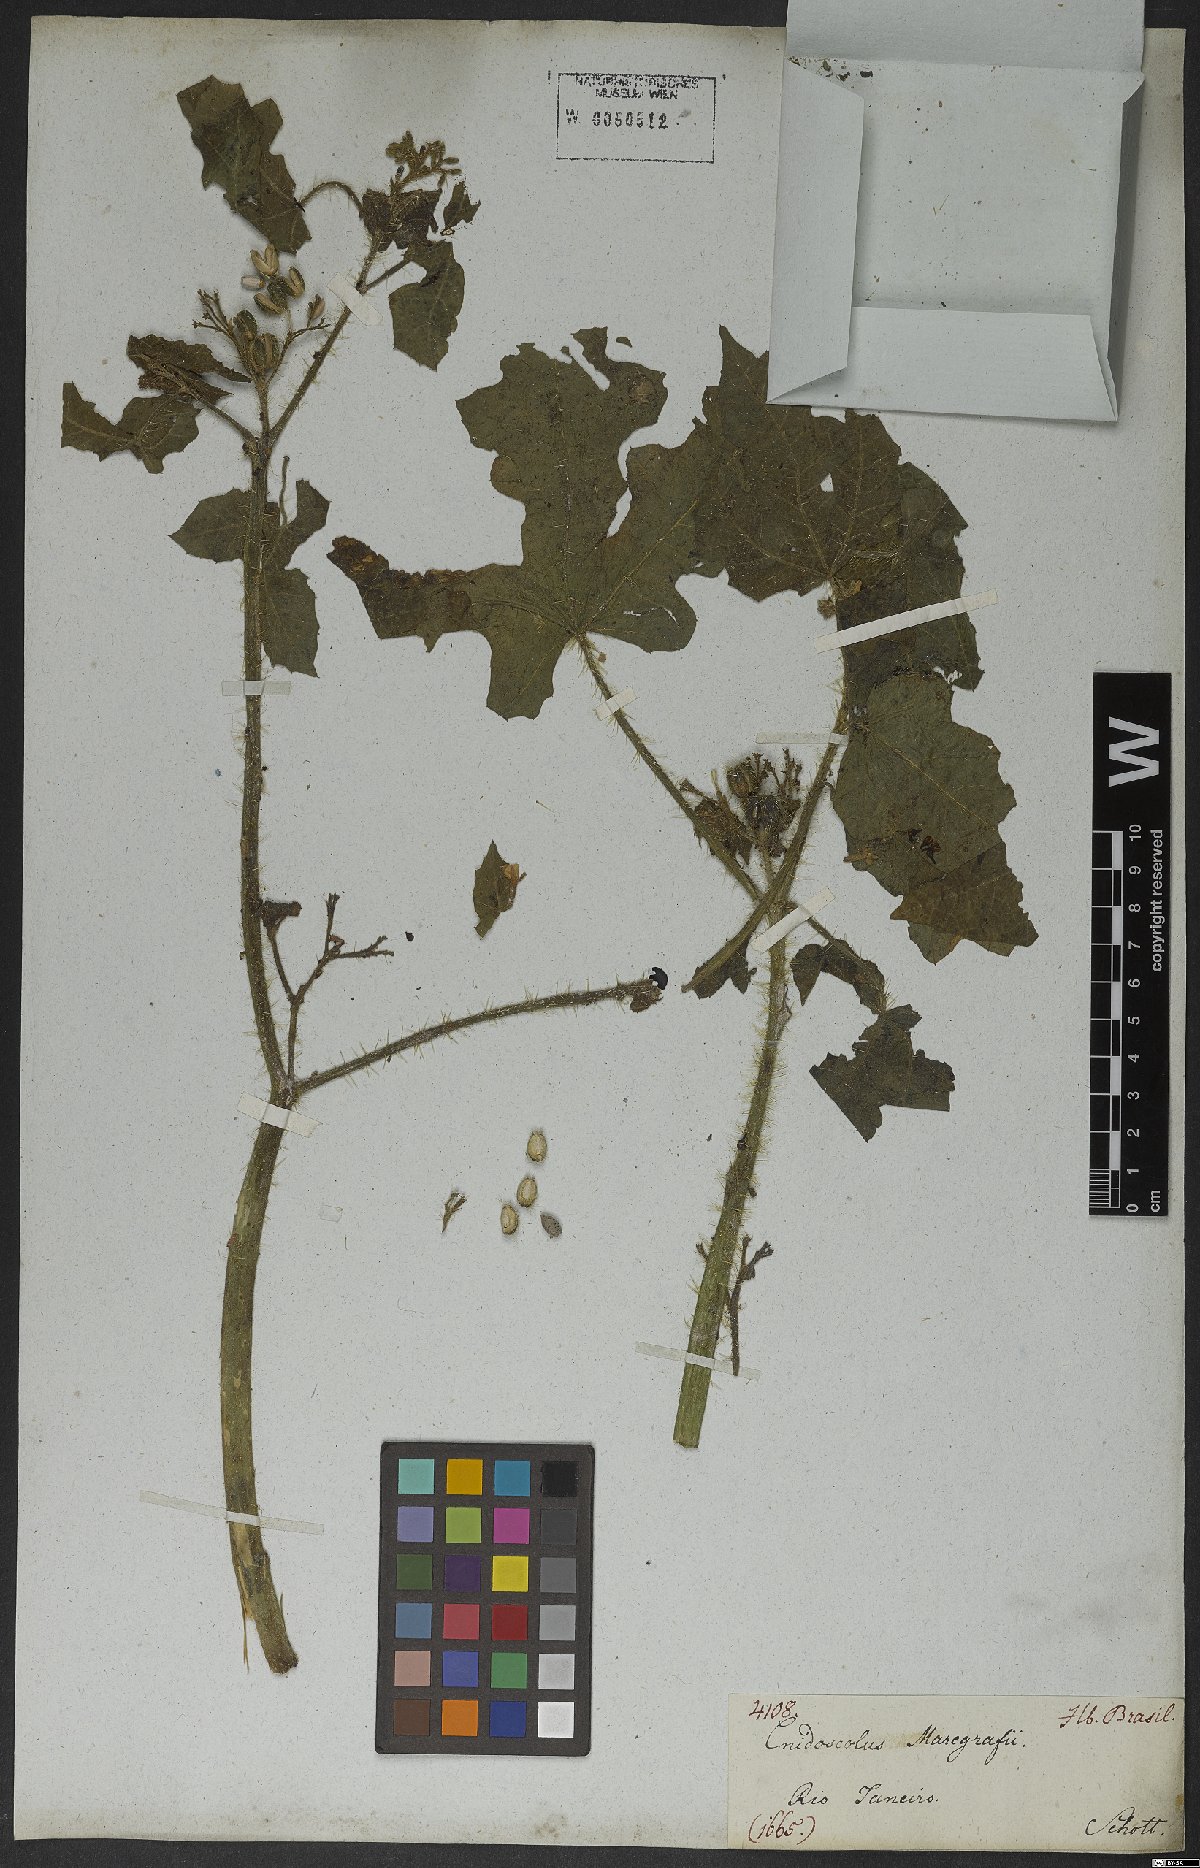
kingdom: Plantae
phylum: Tracheophyta
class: Magnoliopsida
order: Malpighiales
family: Euphorbiaceae
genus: Cnidoscolus
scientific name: Cnidoscolus urens
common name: Bull-nettle
